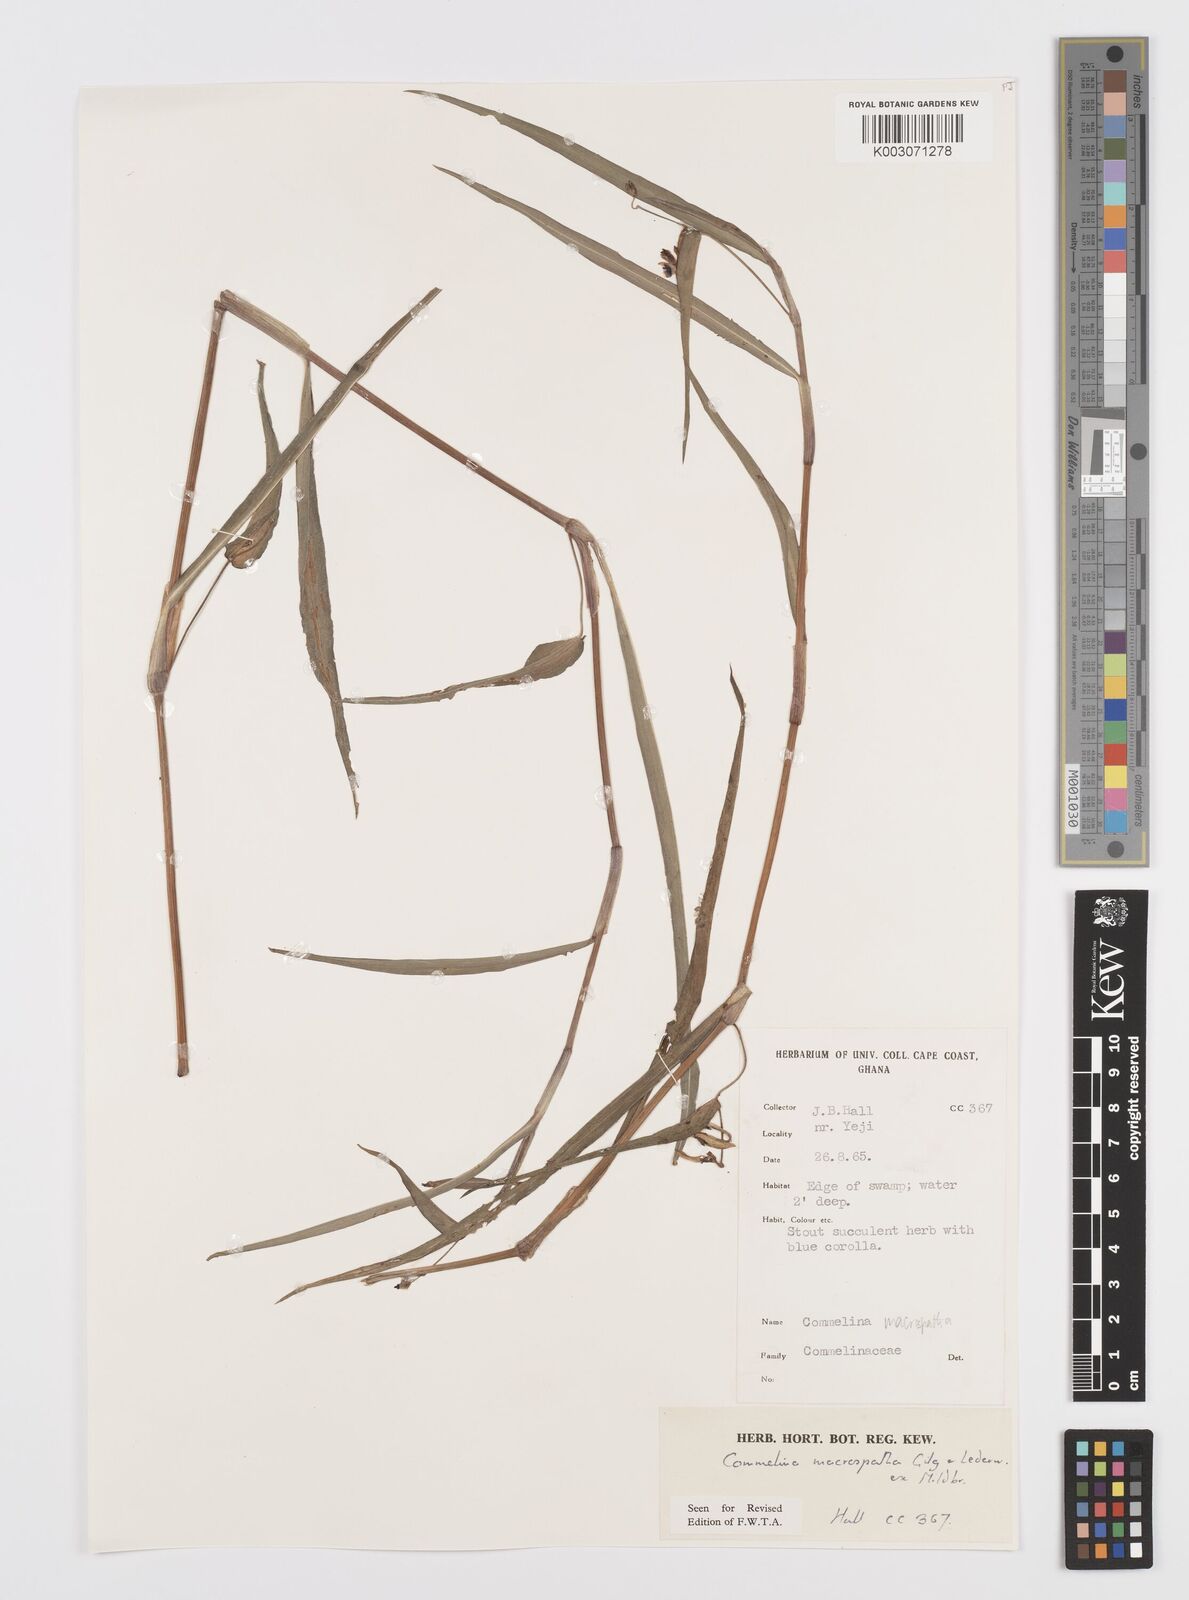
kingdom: Plantae
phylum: Tracheophyta
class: Liliopsida
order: Commelinales
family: Commelinaceae
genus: Commelina
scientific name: Commelina macrospatha
